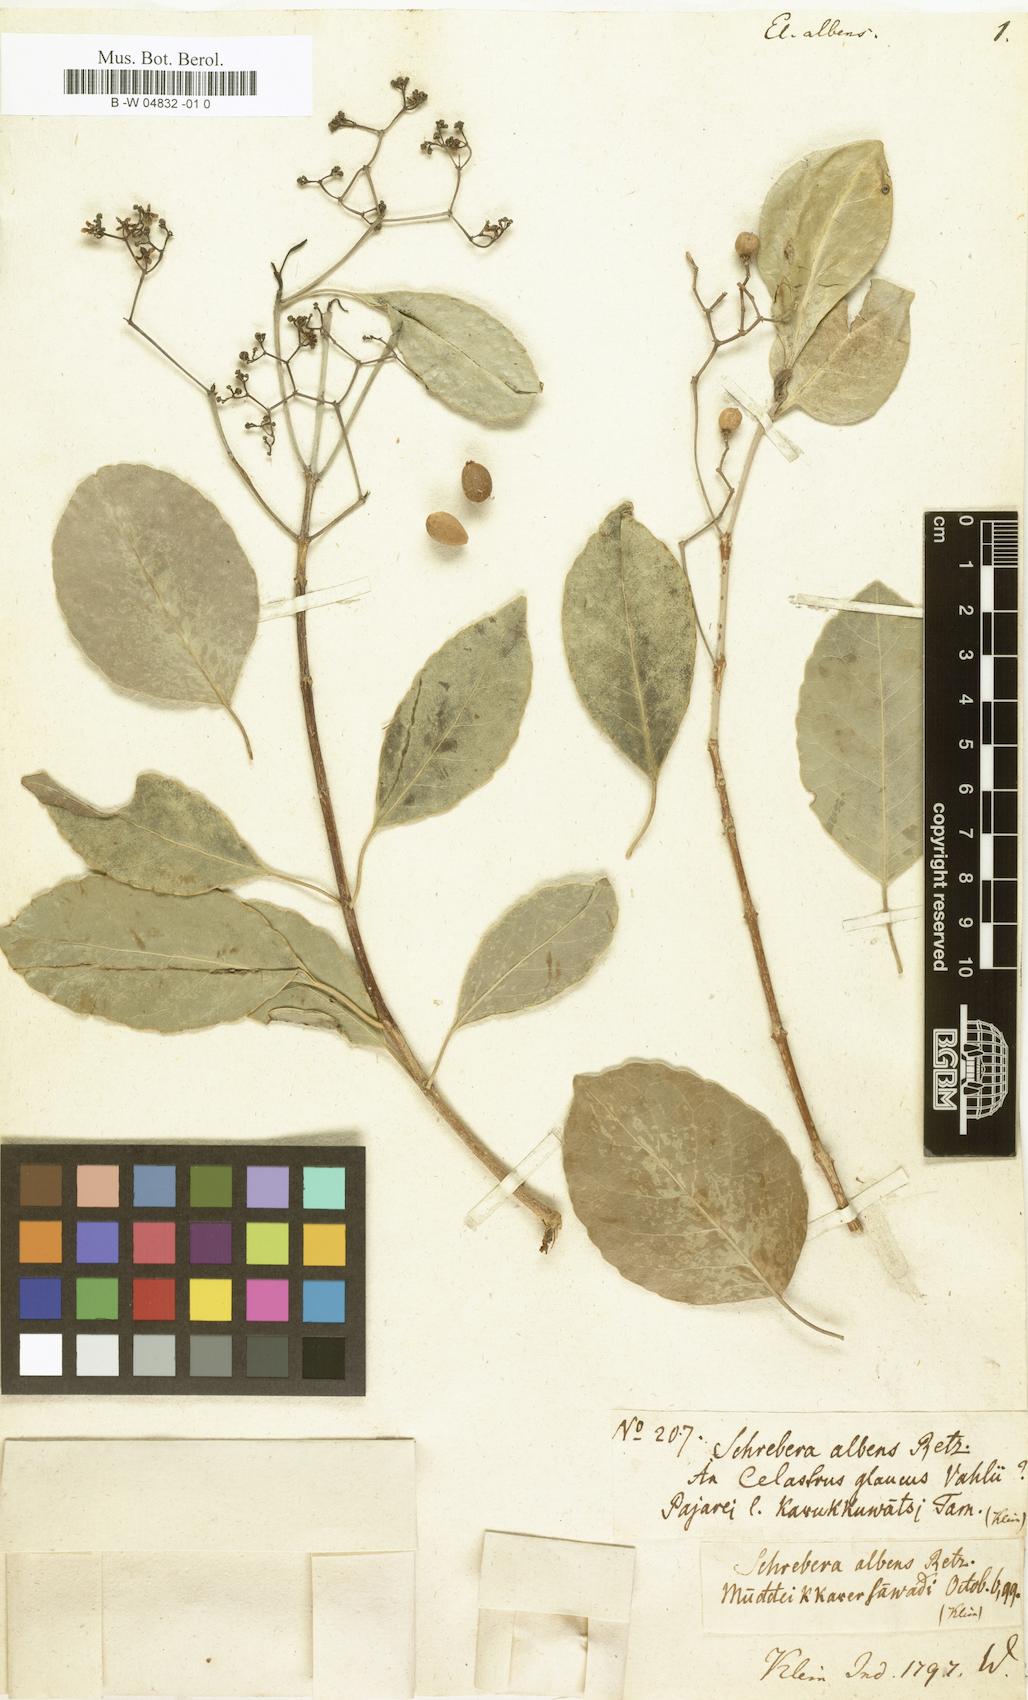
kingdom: Plantae
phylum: Tracheophyta
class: Magnoliopsida
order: Celastrales
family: Celastraceae
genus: Elaeodendron
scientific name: Elaeodendron albens
